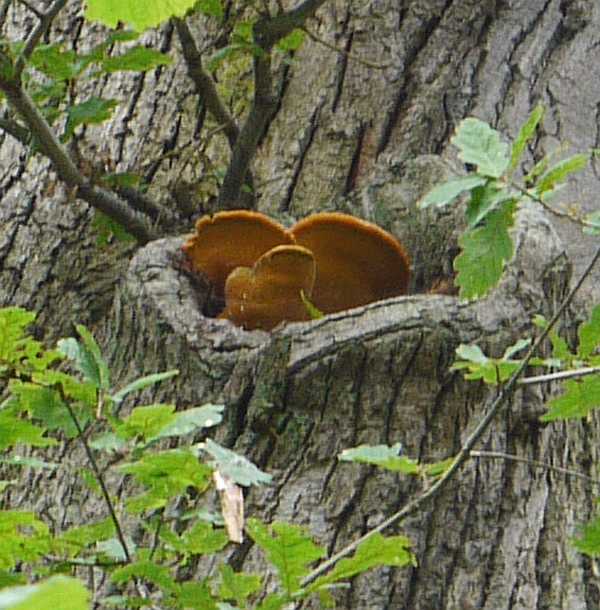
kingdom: Fungi
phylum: Basidiomycota
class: Agaricomycetes
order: Polyporales
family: Phanerochaetaceae
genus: Hapalopilus
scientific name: Hapalopilus croceus
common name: safrangul pragtporesvamp
